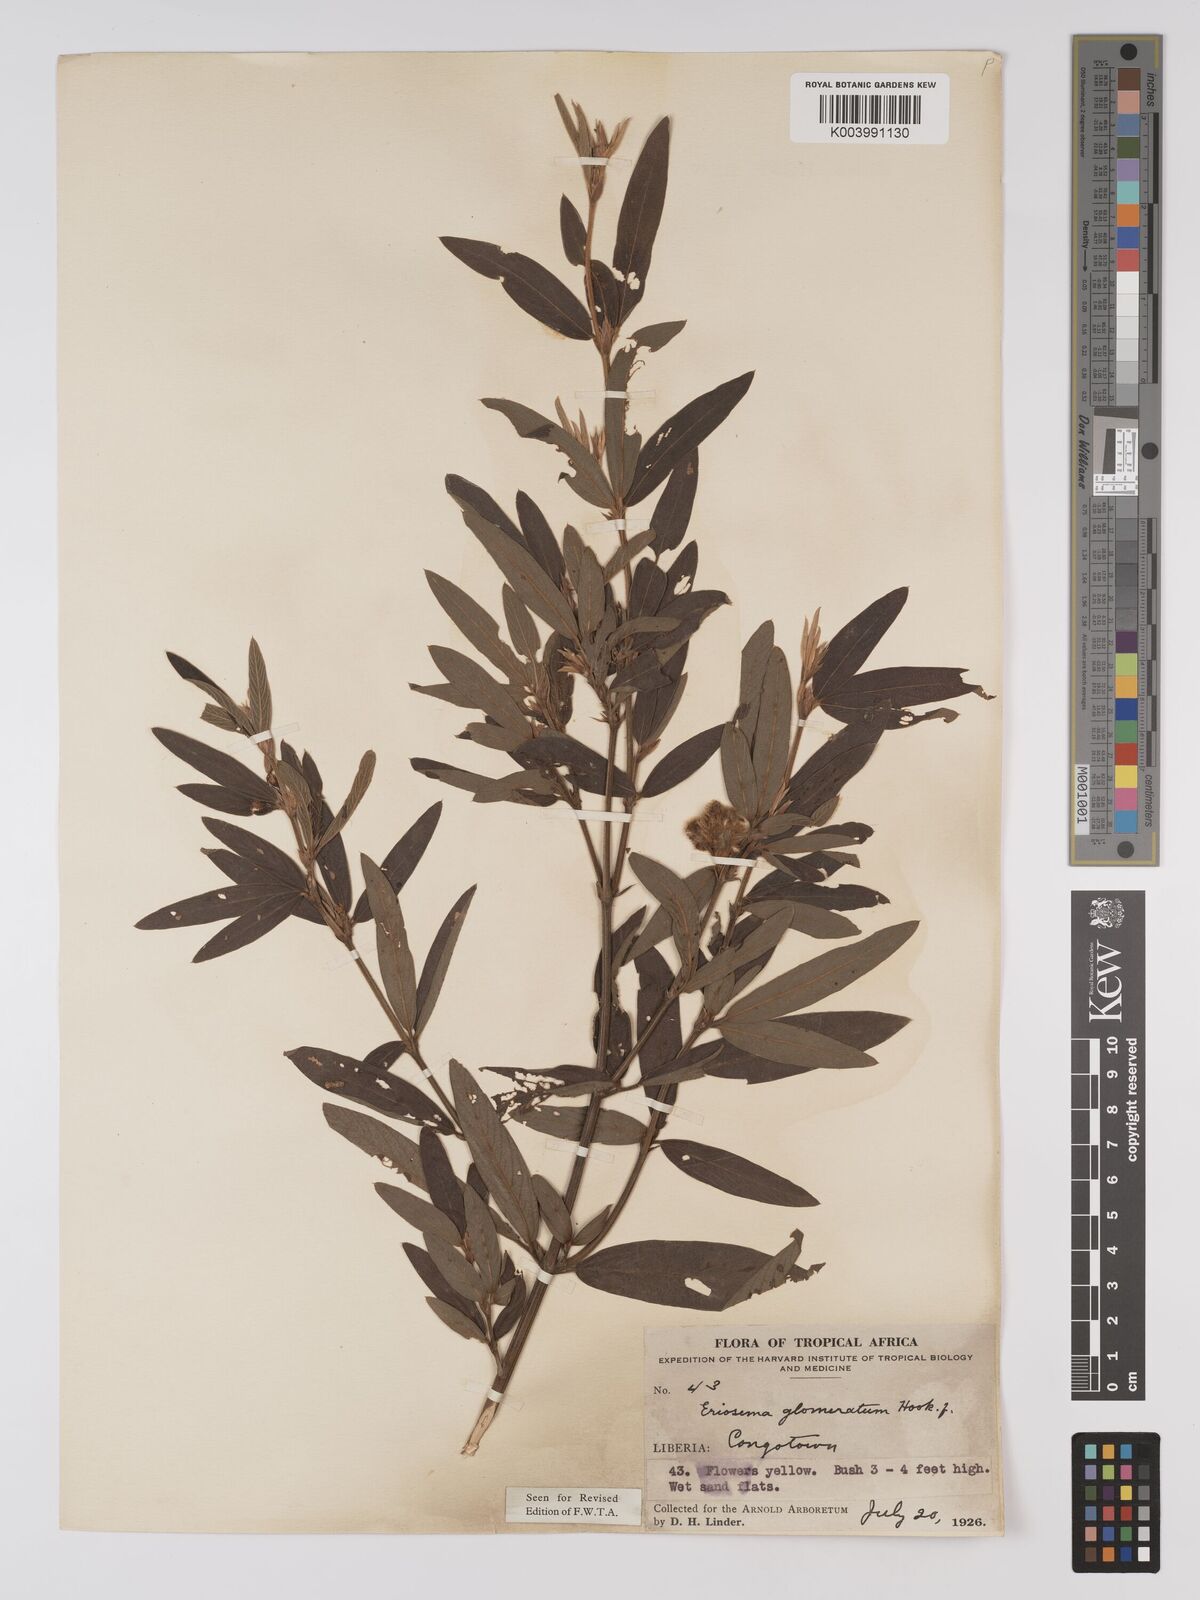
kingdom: Plantae
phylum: Tracheophyta
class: Magnoliopsida
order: Fabales
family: Fabaceae
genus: Eriosema
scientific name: Eriosema glomeratum
